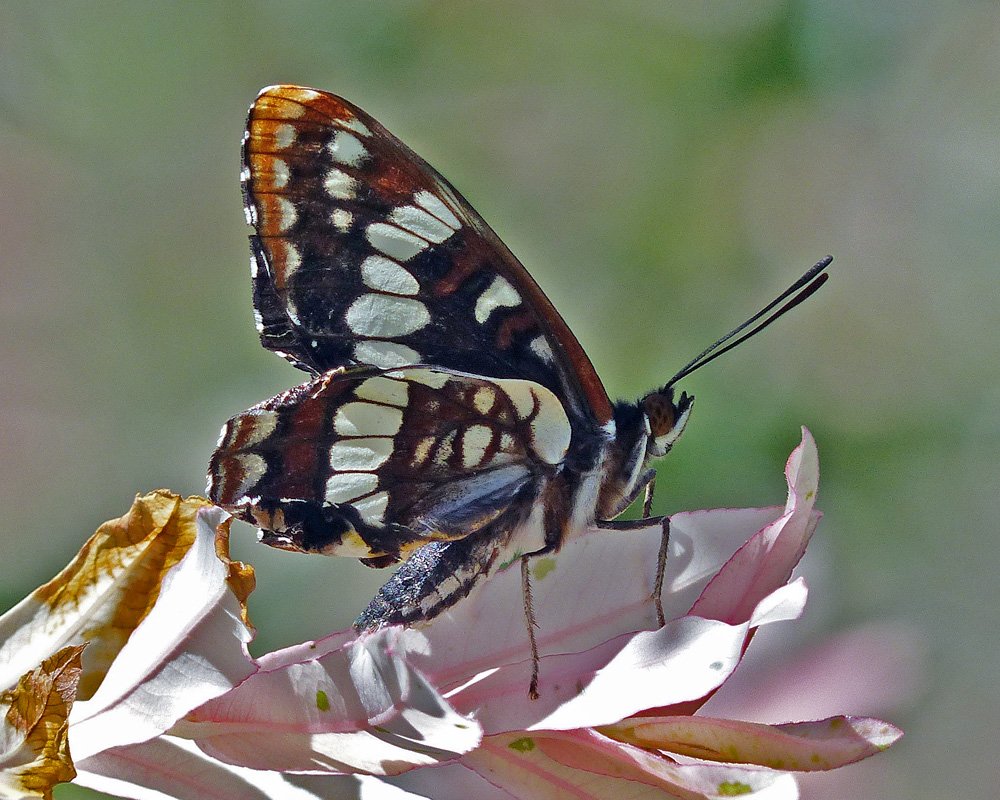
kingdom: Animalia
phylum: Arthropoda
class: Insecta
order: Lepidoptera
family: Nymphalidae
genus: Limenitis
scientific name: Limenitis lorquini
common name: Lorquin's Admiral
